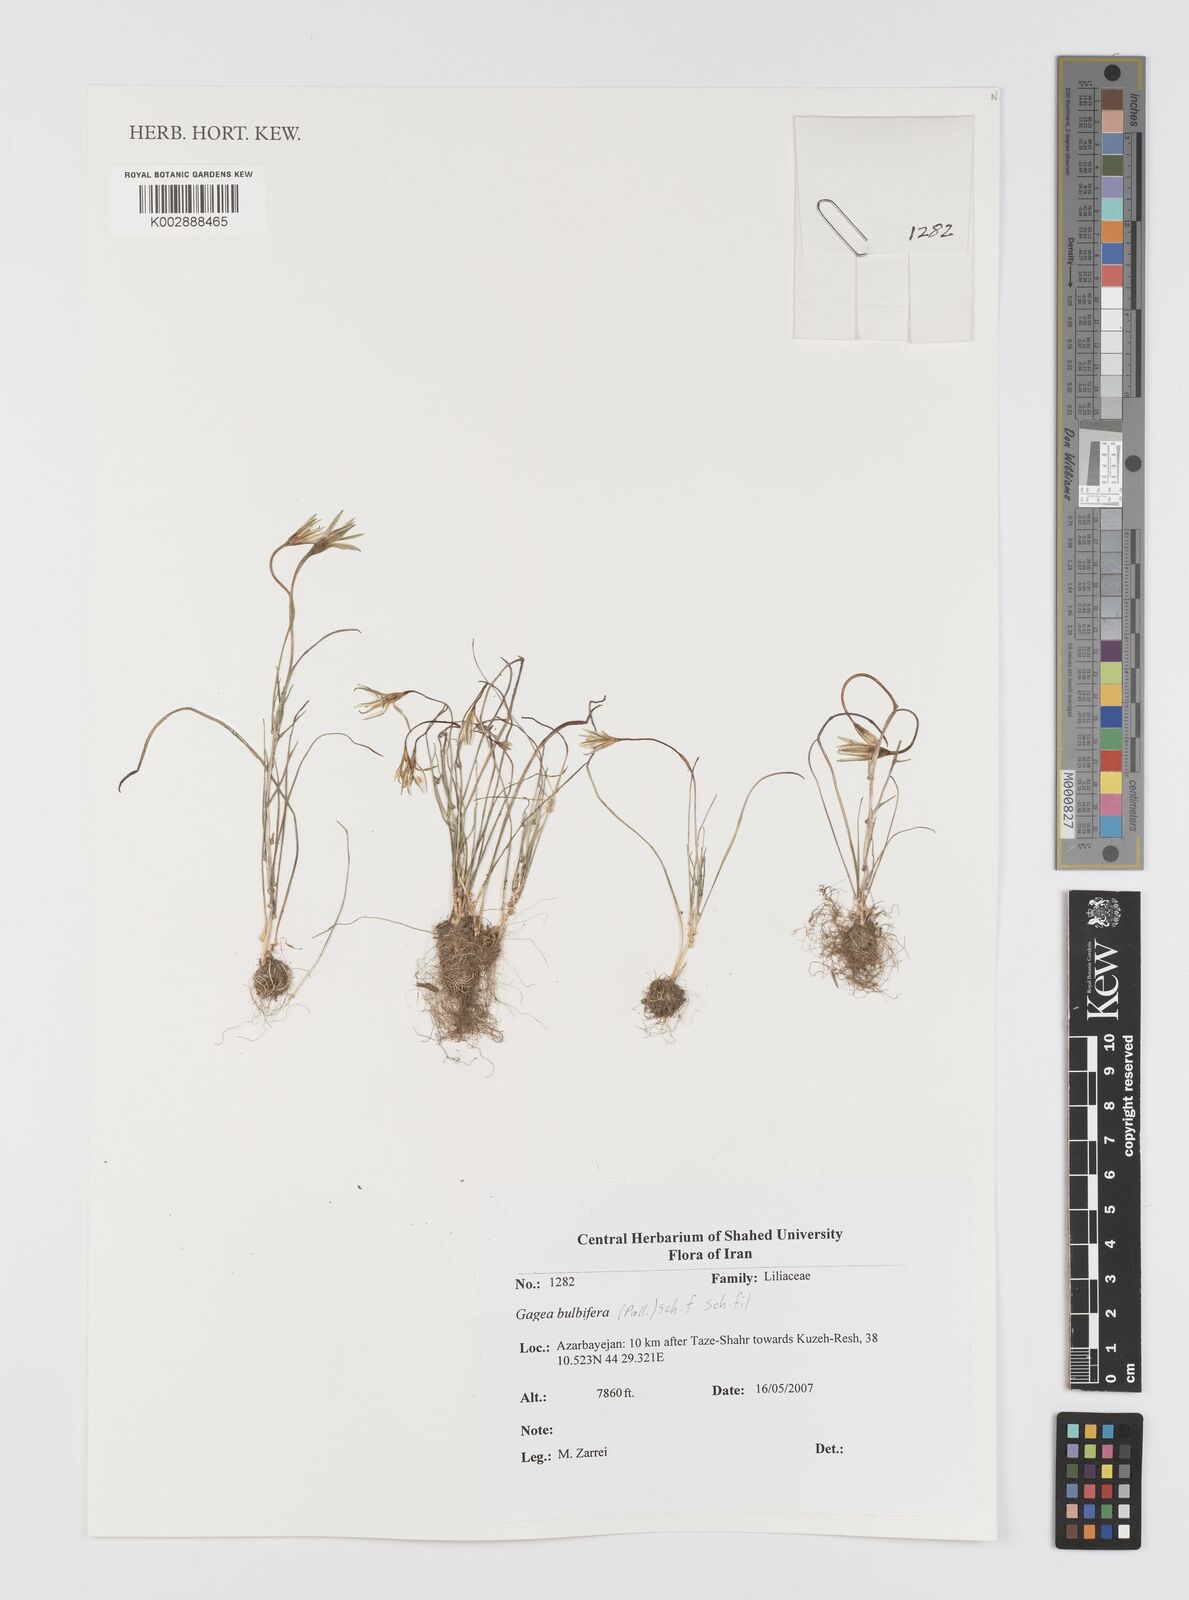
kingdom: Plantae
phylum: Tracheophyta
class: Liliopsida
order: Liliales
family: Liliaceae
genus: Gagea
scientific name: Gagea bulbifera
